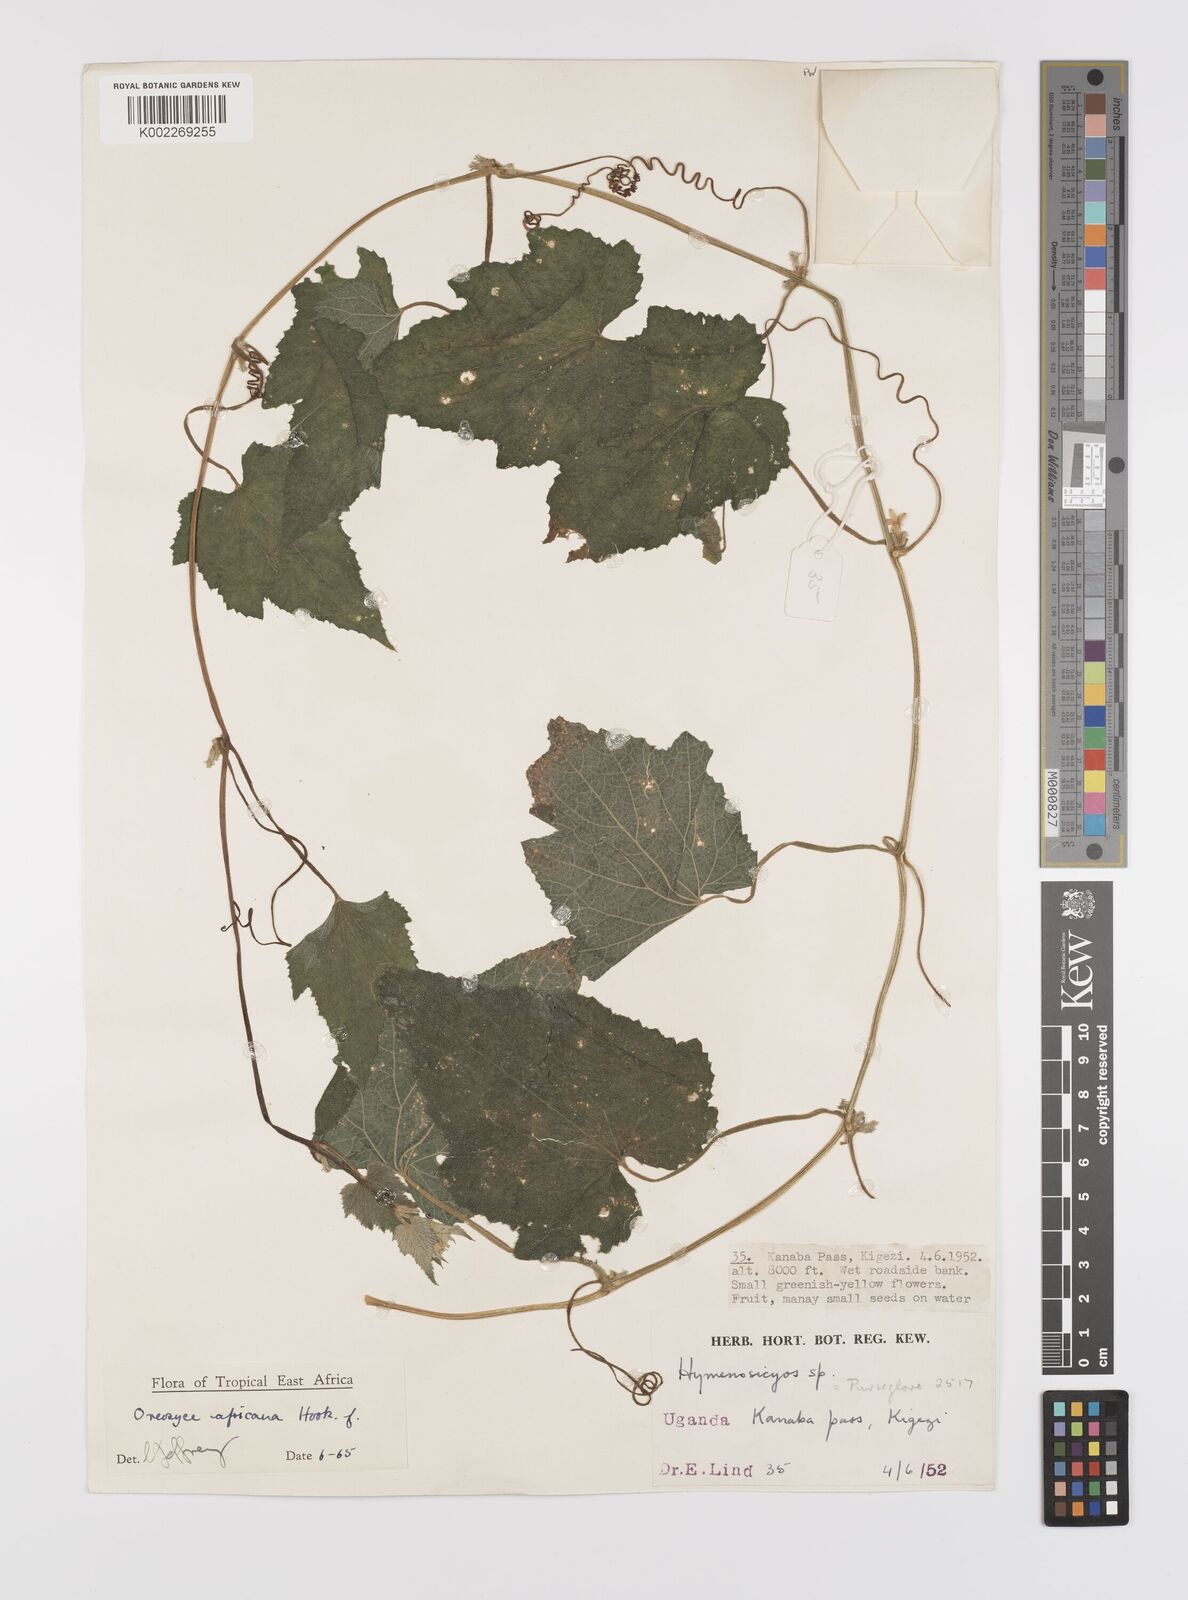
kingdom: Plantae
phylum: Tracheophyta
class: Magnoliopsida
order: Cucurbitales
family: Cucurbitaceae
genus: Cucumis
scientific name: Cucumis oreosyce
